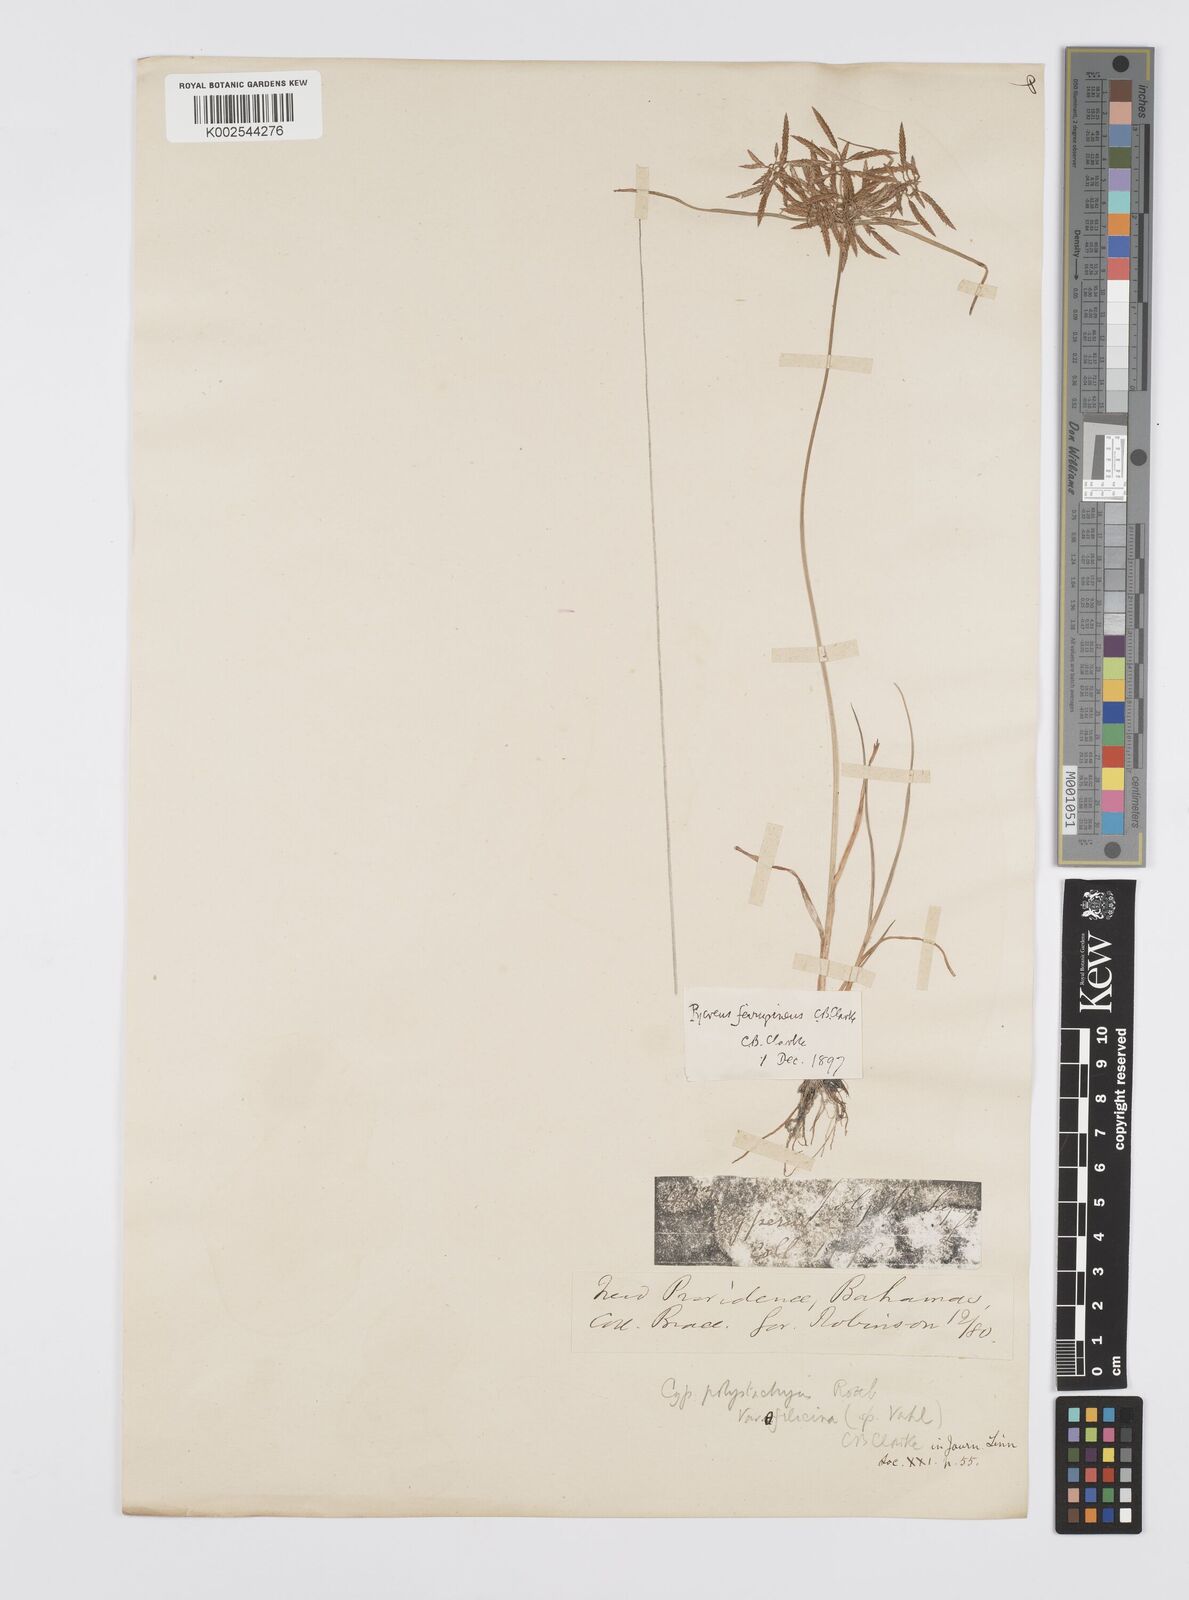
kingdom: Plantae
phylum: Tracheophyta
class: Liliopsida
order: Poales
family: Cyperaceae
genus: Cyperus
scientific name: Cyperus filicinus
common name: Fern flatsedge
